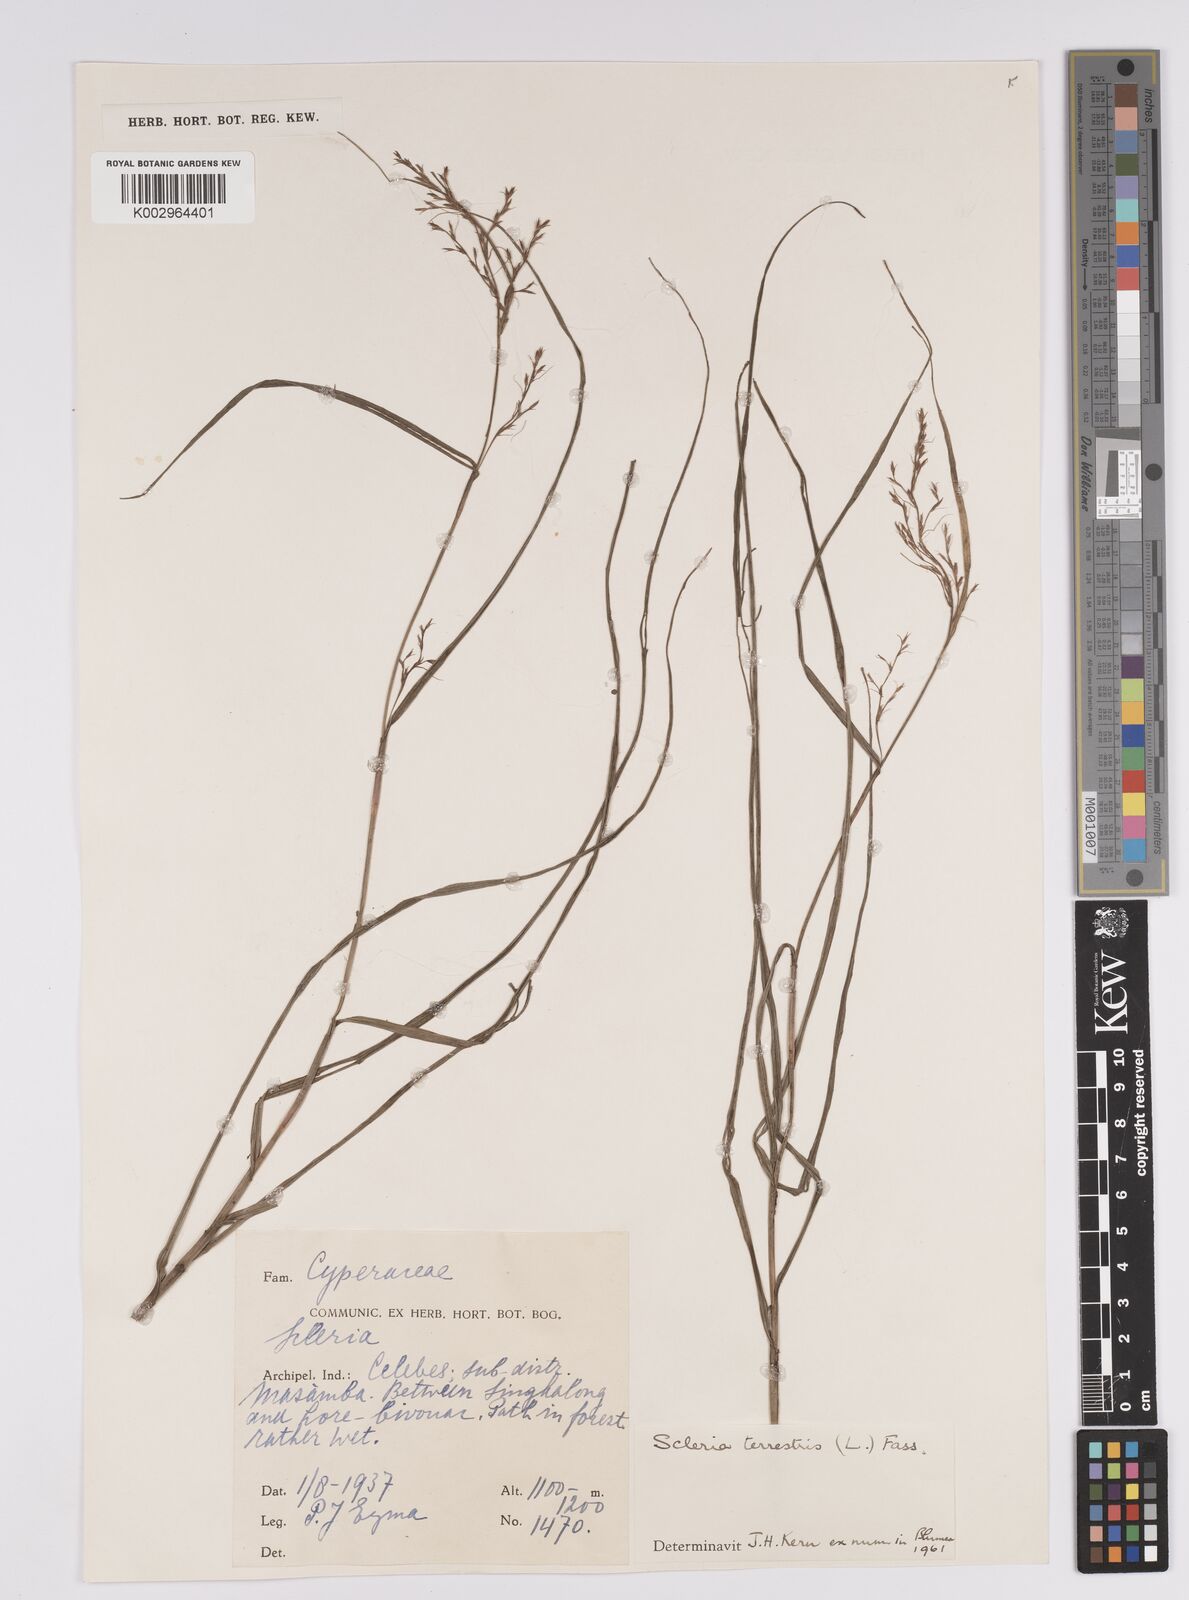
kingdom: Plantae
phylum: Tracheophyta
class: Liliopsida
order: Poales
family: Cyperaceae
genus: Scleria
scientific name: Scleria terrestris
